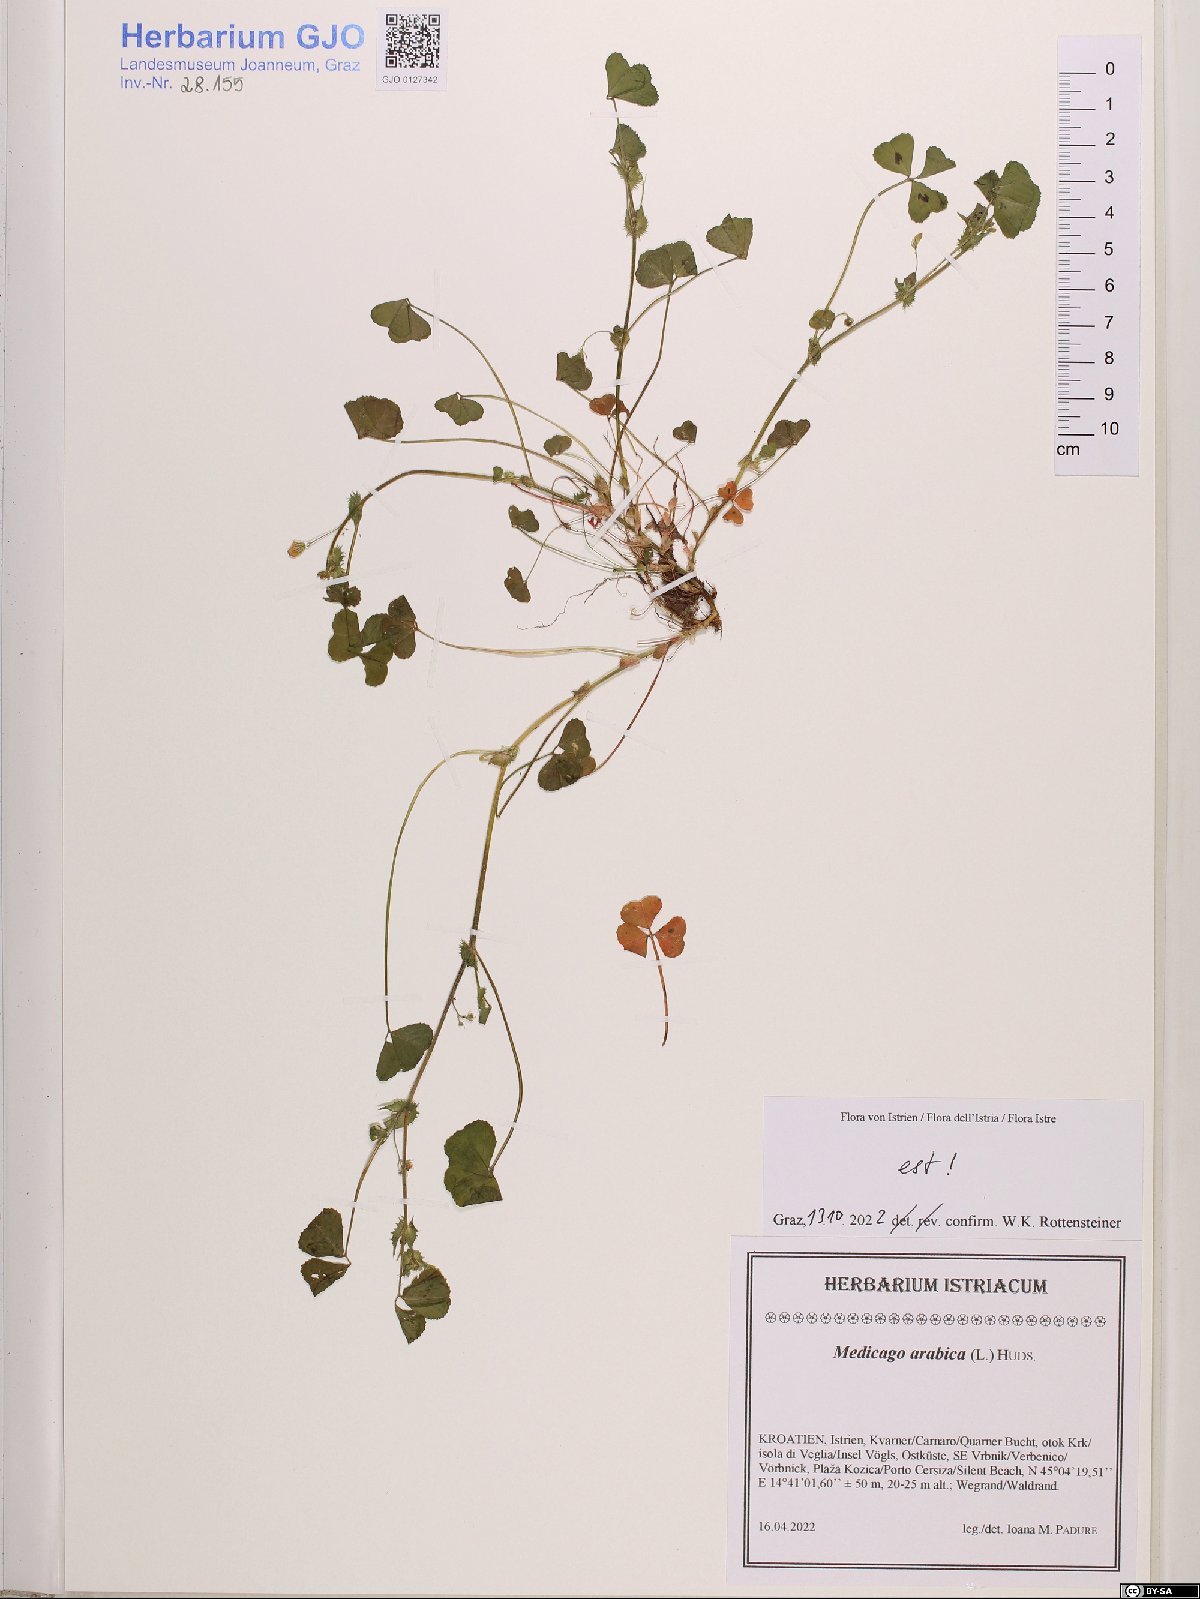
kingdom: Plantae
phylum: Tracheophyta
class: Magnoliopsida
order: Fabales
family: Fabaceae
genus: Medicago
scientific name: Medicago arabica
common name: Spotted medick
